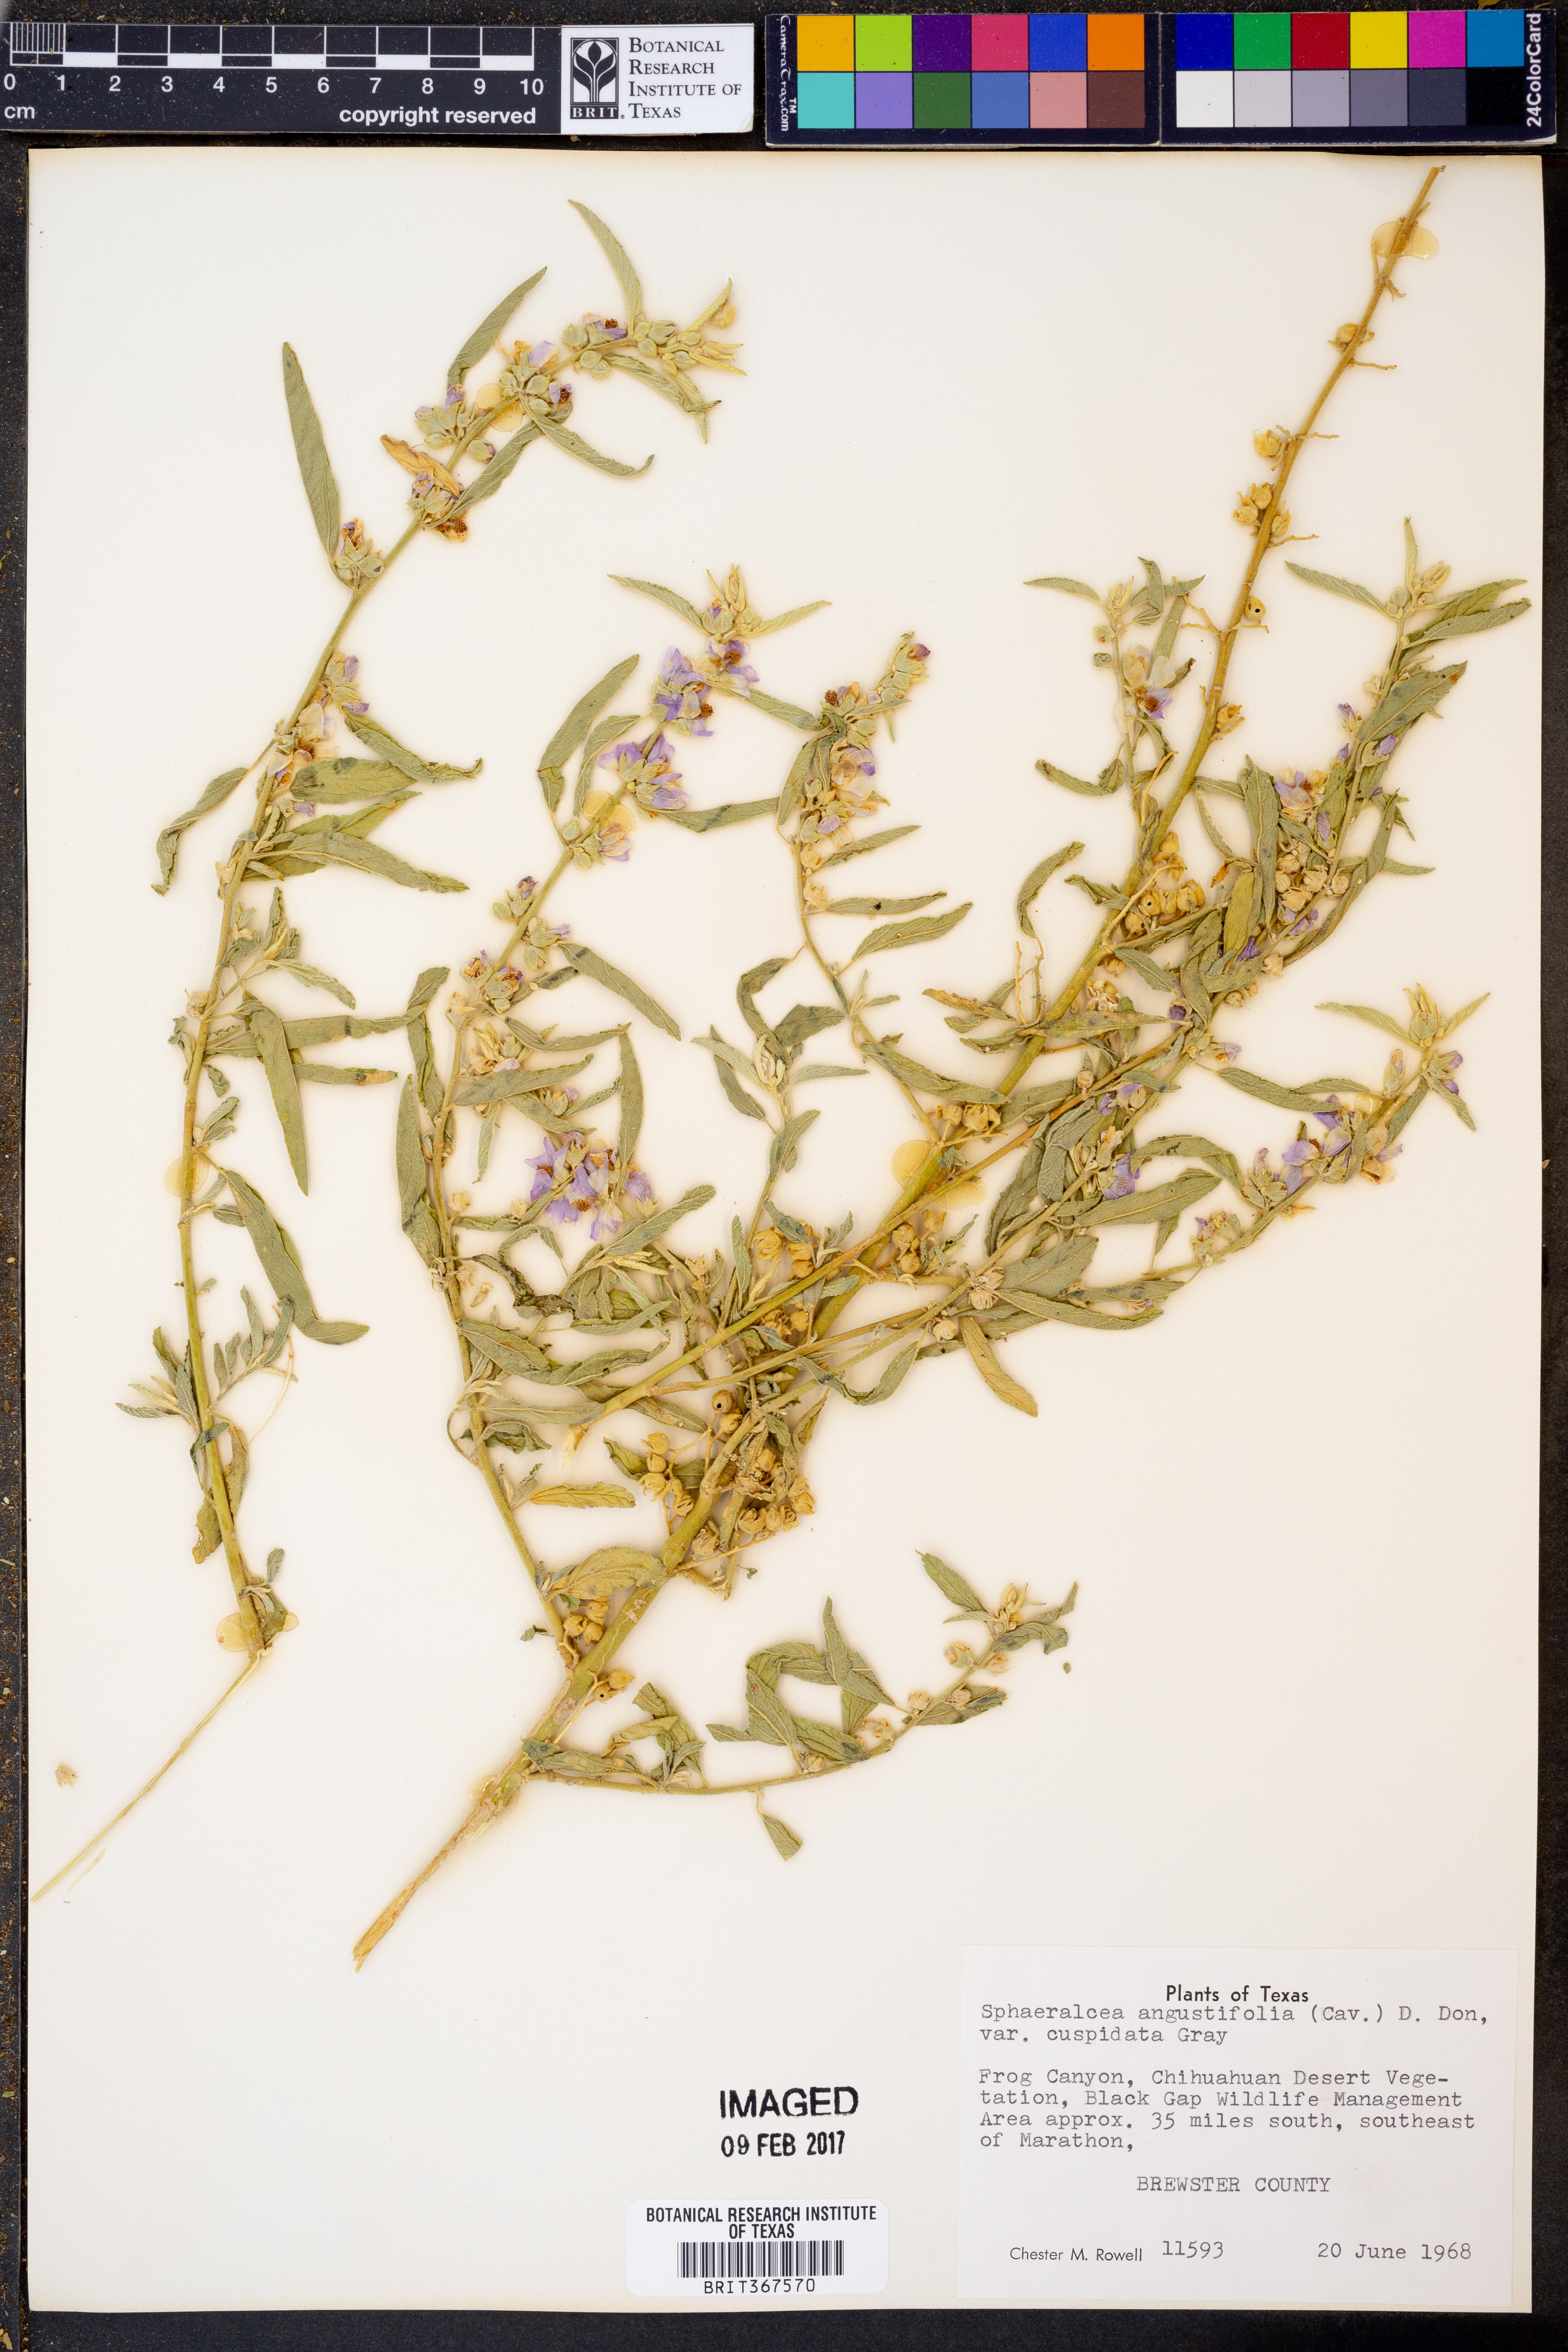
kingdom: Plantae
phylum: Tracheophyta
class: Magnoliopsida
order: Malvales
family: Malvaceae
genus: Sphaeralcea
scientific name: Sphaeralcea angustifolia
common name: Copper globe-mallow
